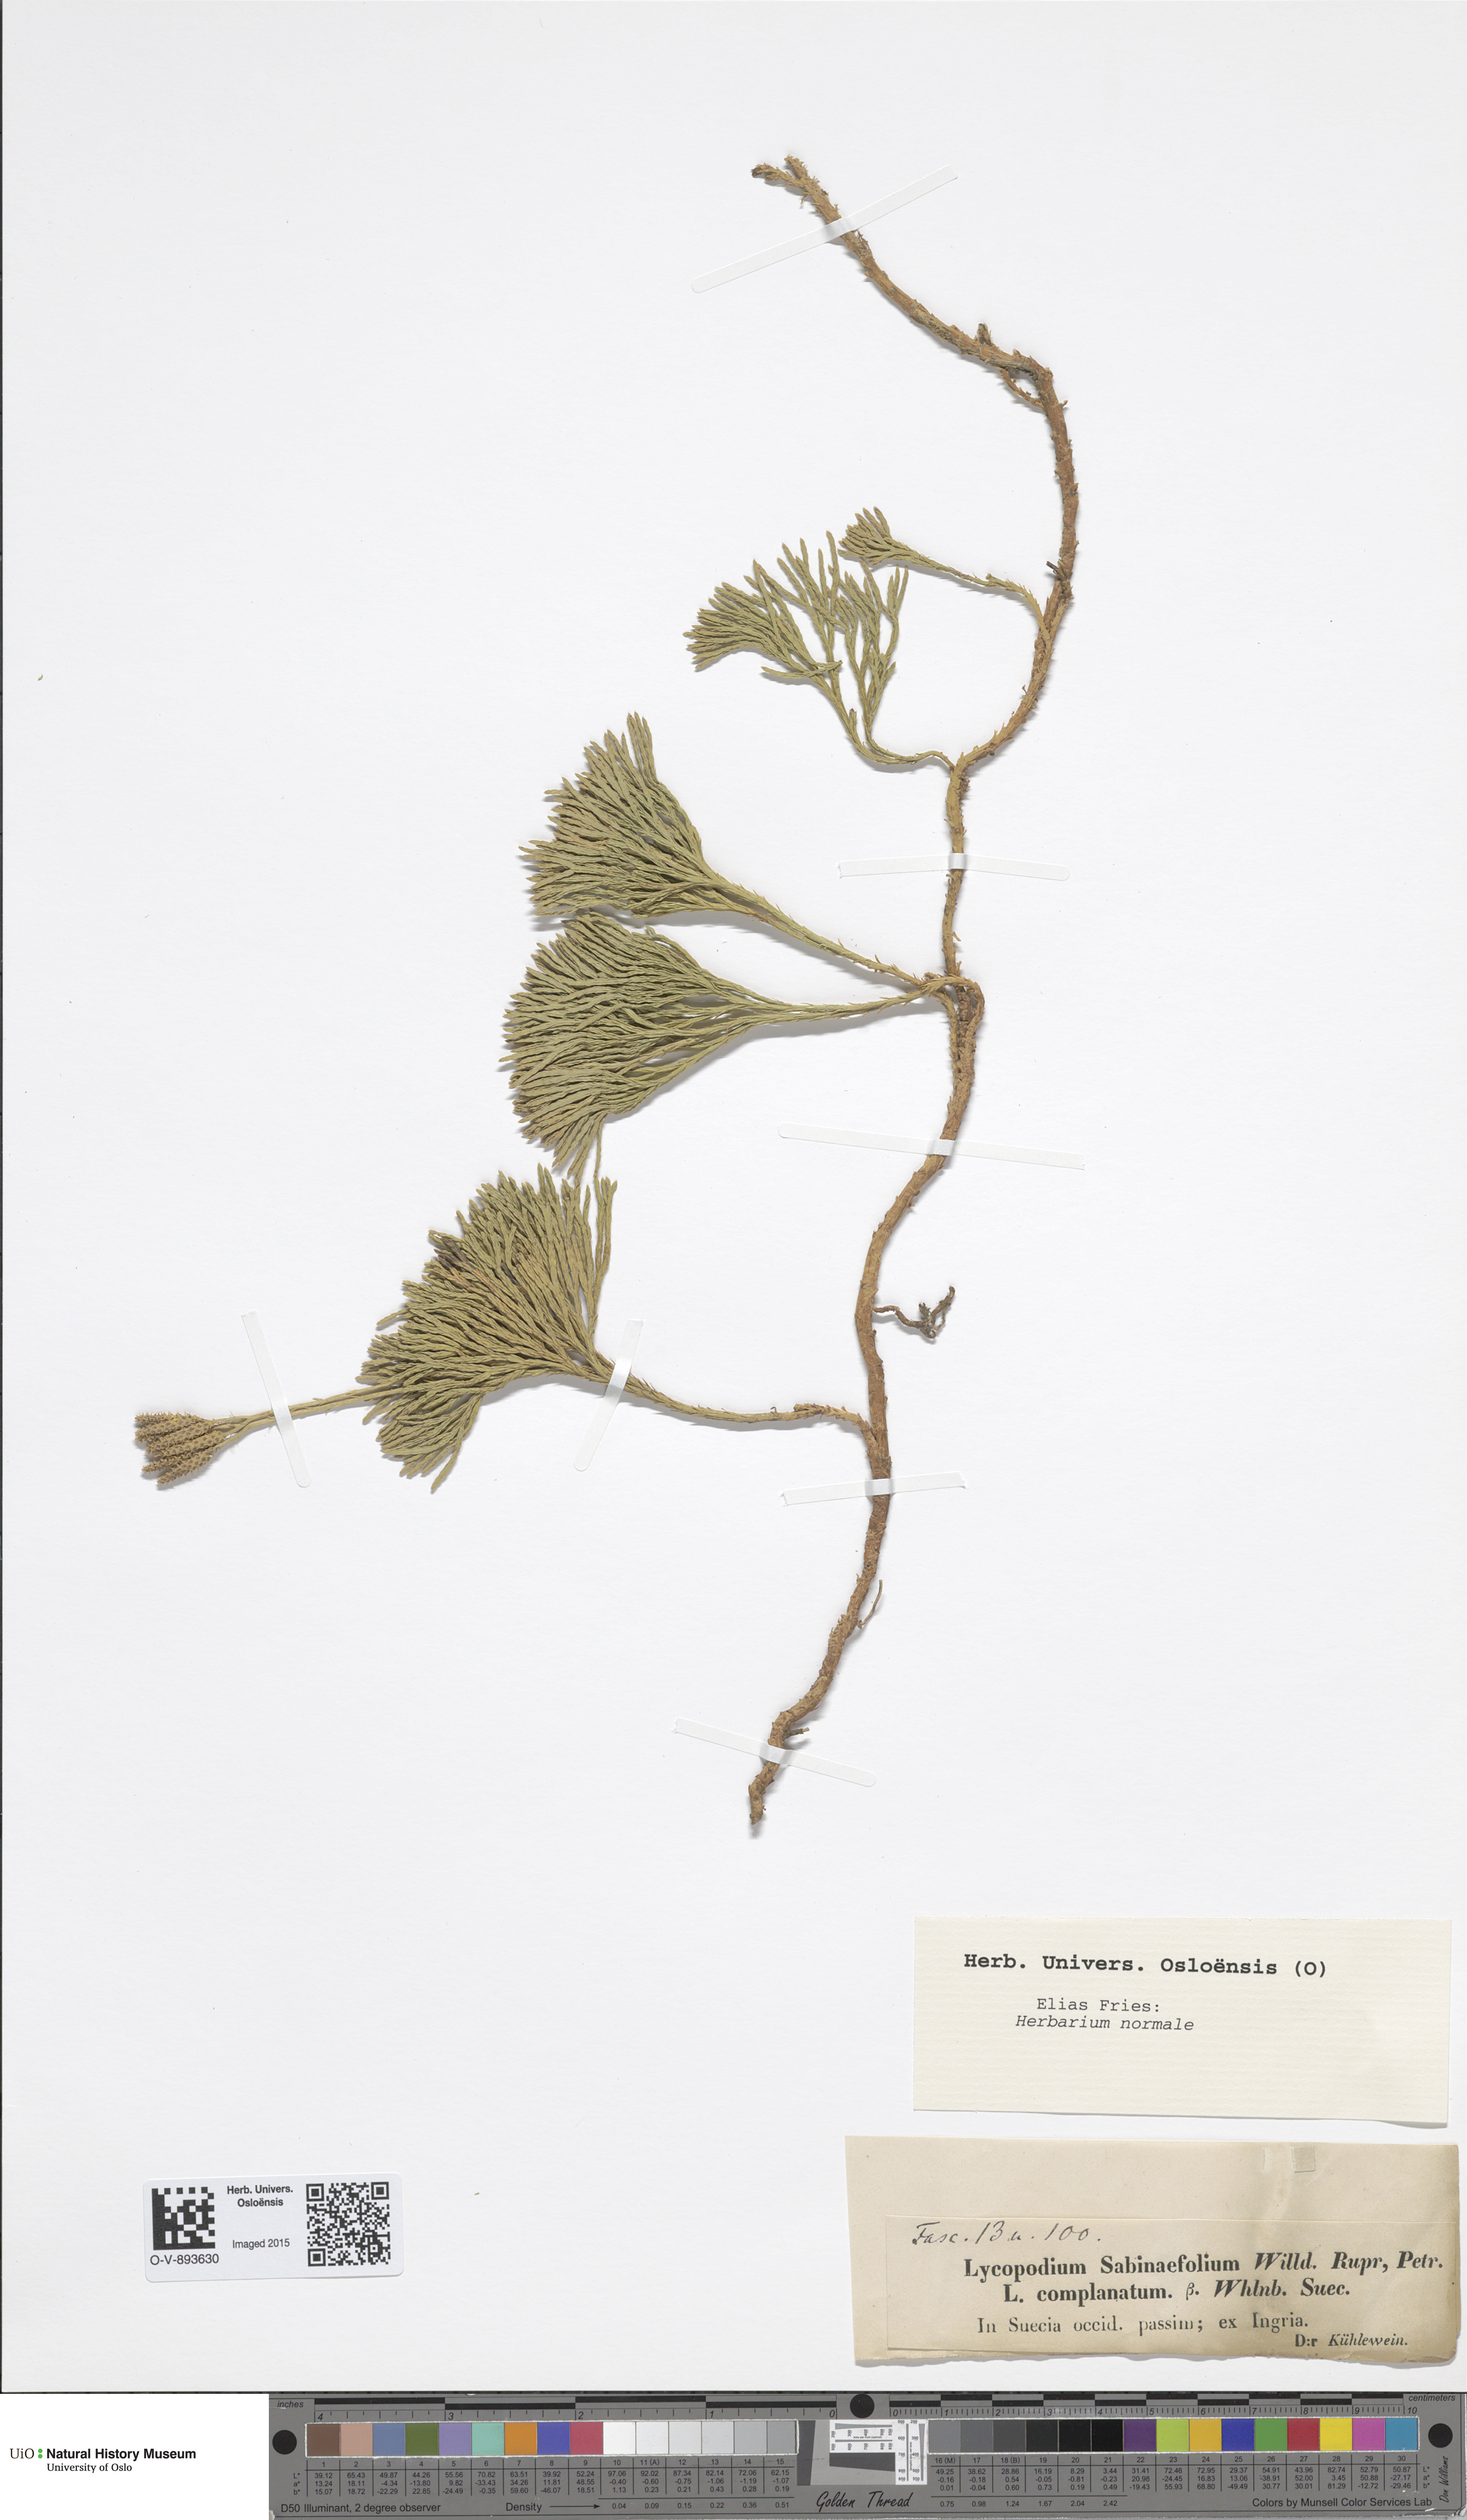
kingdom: Plantae
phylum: Tracheophyta
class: Lycopodiopsida
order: Lycopodiales
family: Lycopodiaceae
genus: Lycopodium
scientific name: Lycopodium sabinaefolium
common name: Savinleaf groundpine
